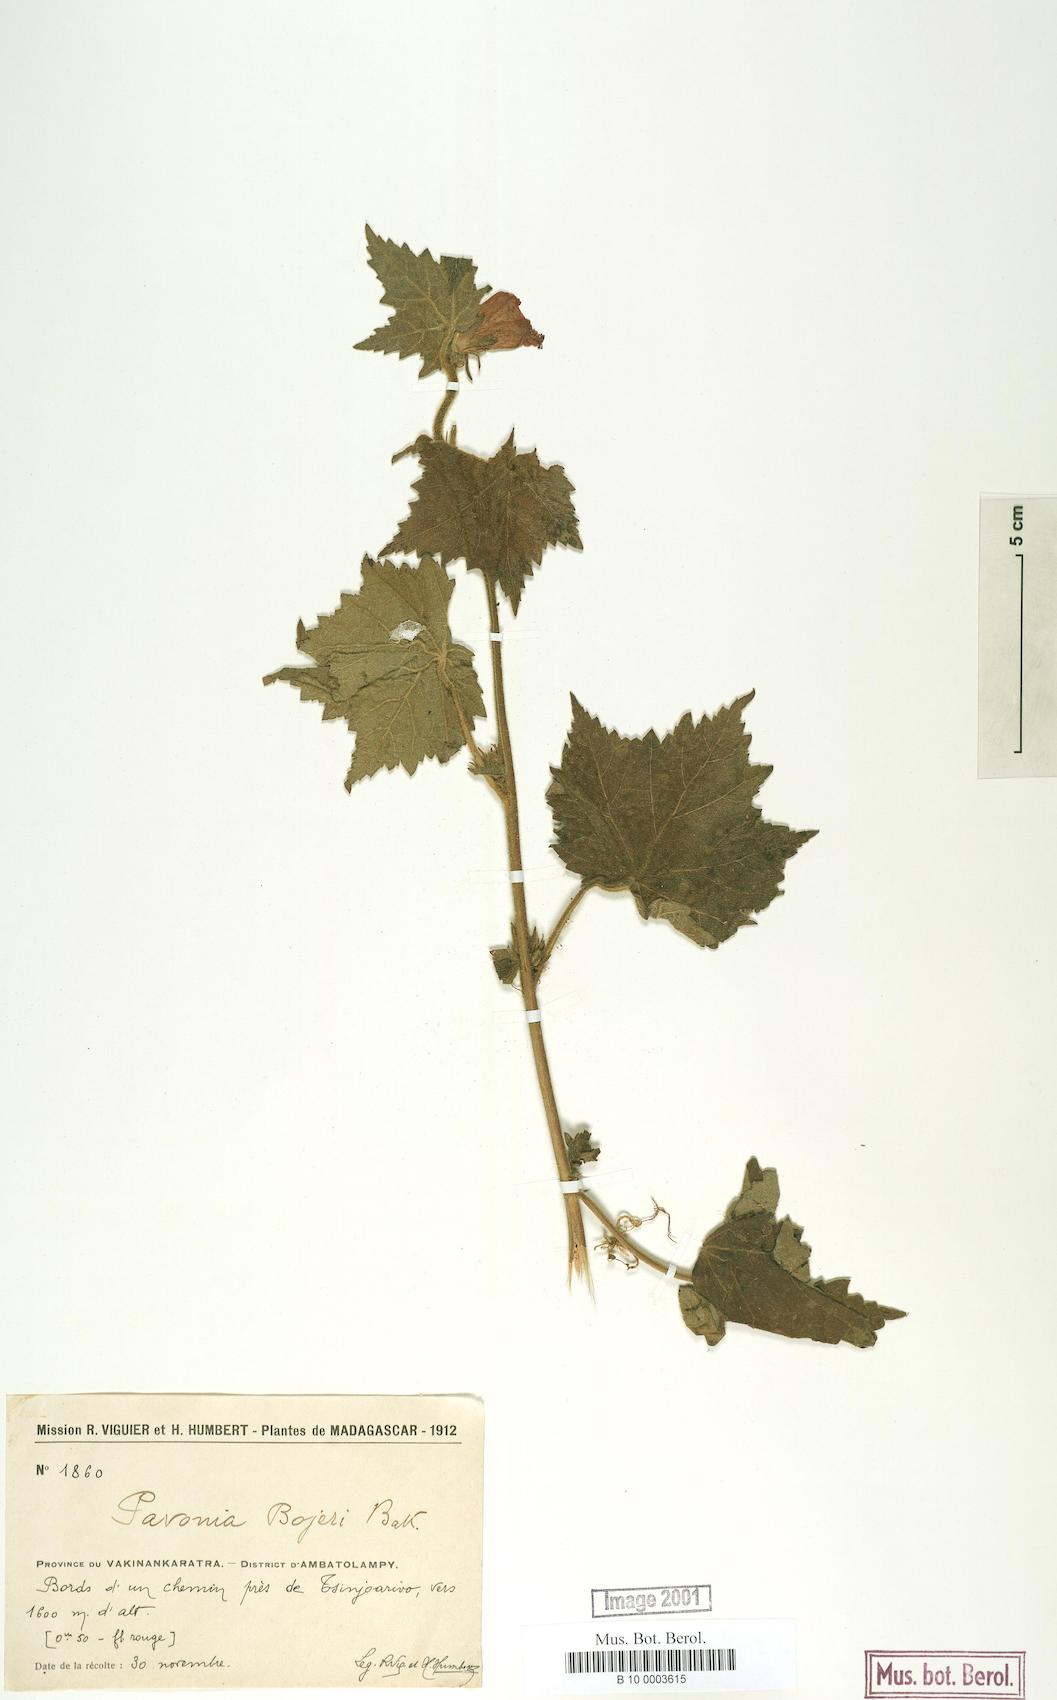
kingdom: Plantae
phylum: Tracheophyta
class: Magnoliopsida
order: Malvales
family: Malvaceae
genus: Pavonia
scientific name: Pavonia urens
